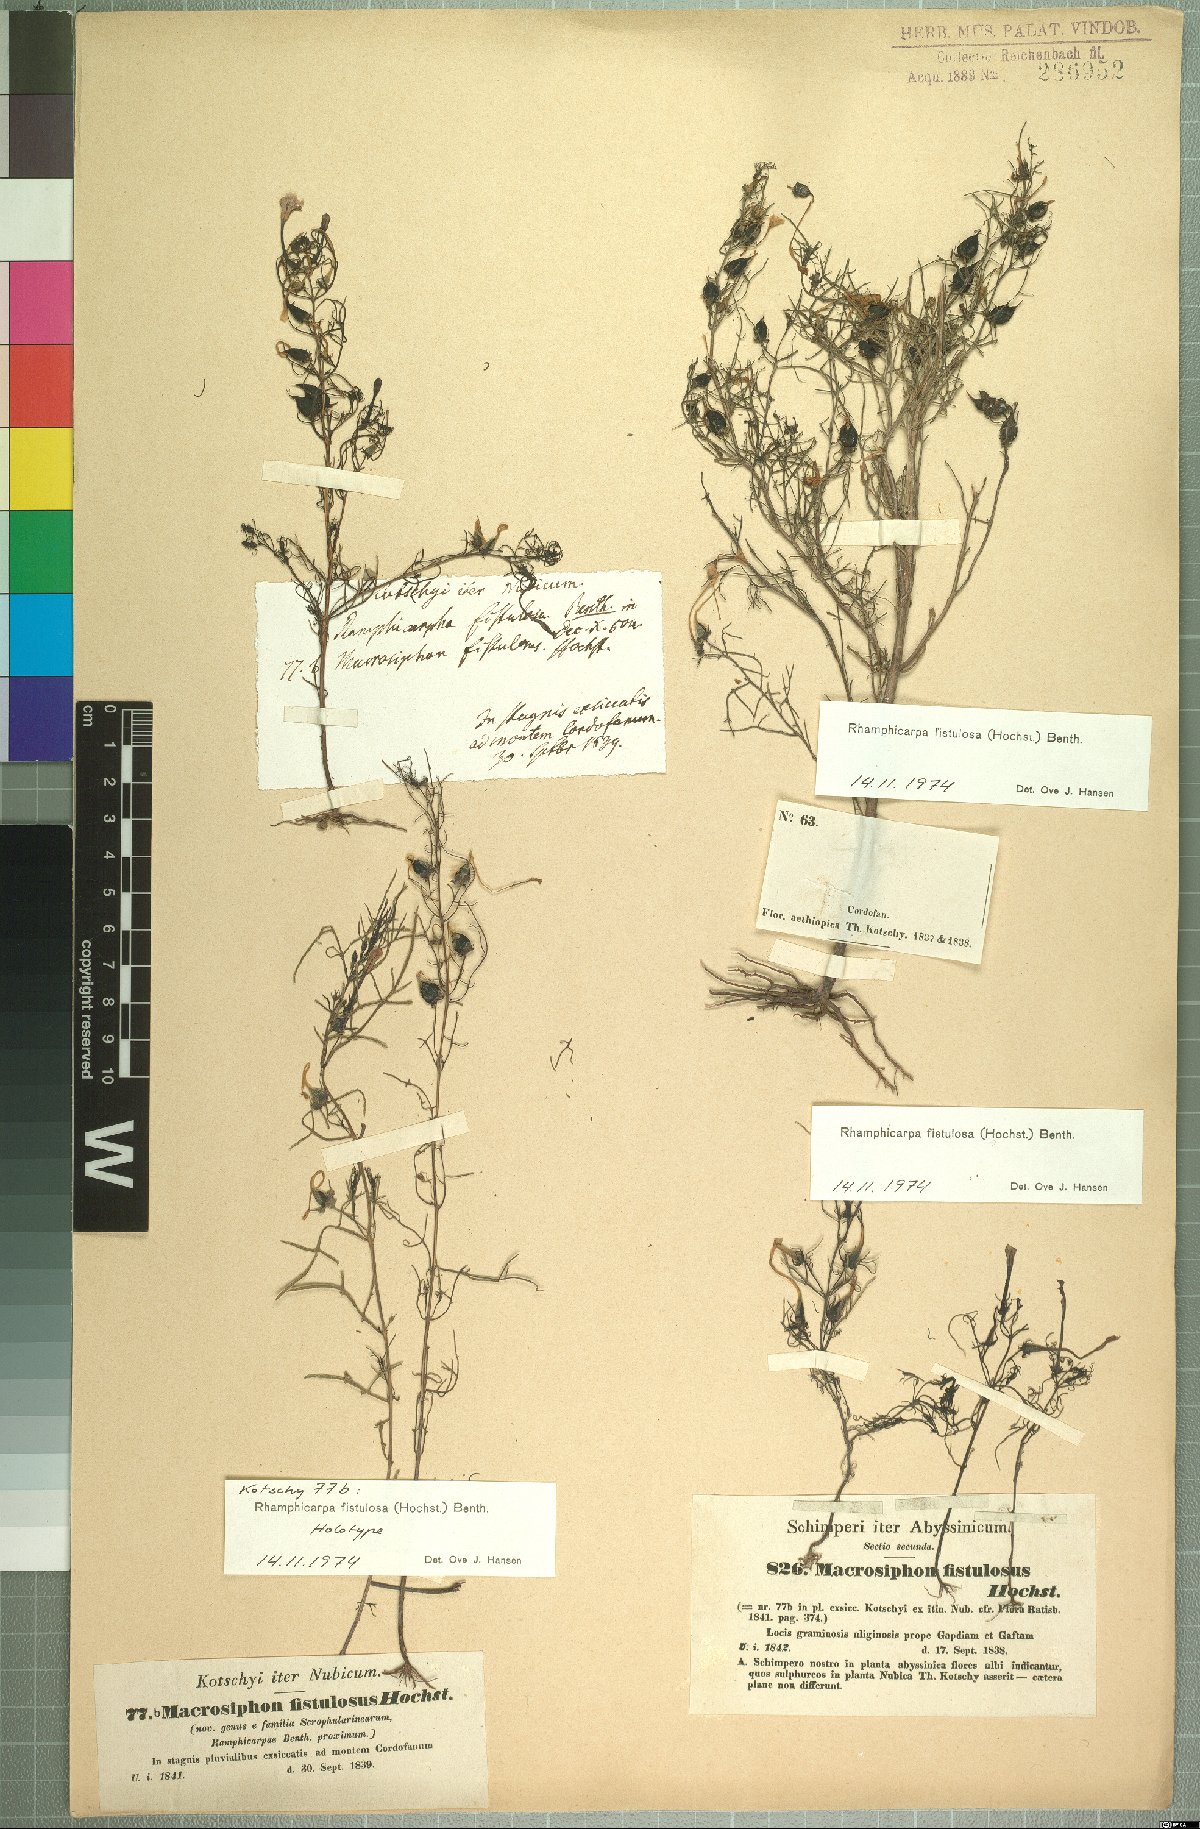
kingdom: Plantae
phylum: Tracheophyta
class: Magnoliopsida
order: Lamiales
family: Orobanchaceae
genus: Rhamphicarpa
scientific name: Rhamphicarpa fistulosa
